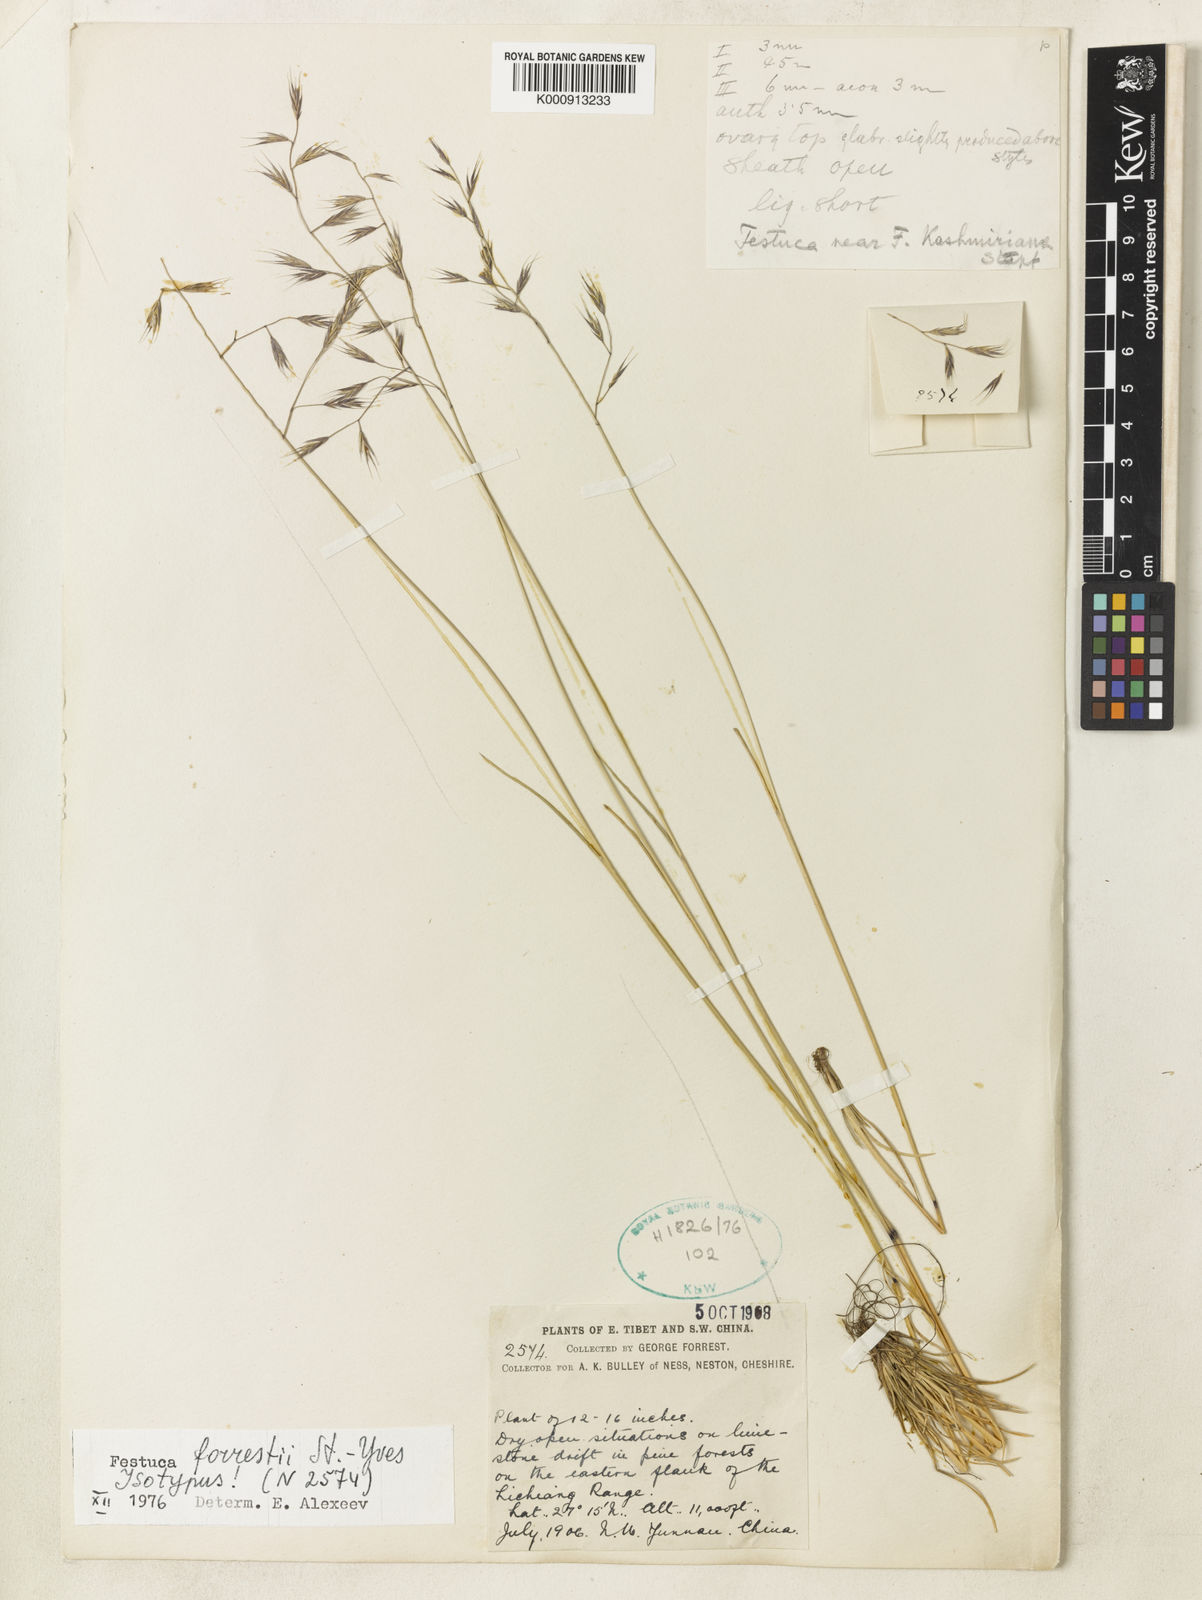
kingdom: Plantae
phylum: Tracheophyta
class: Liliopsida
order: Poales
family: Poaceae
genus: Festuca
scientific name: Festuca forrestii
